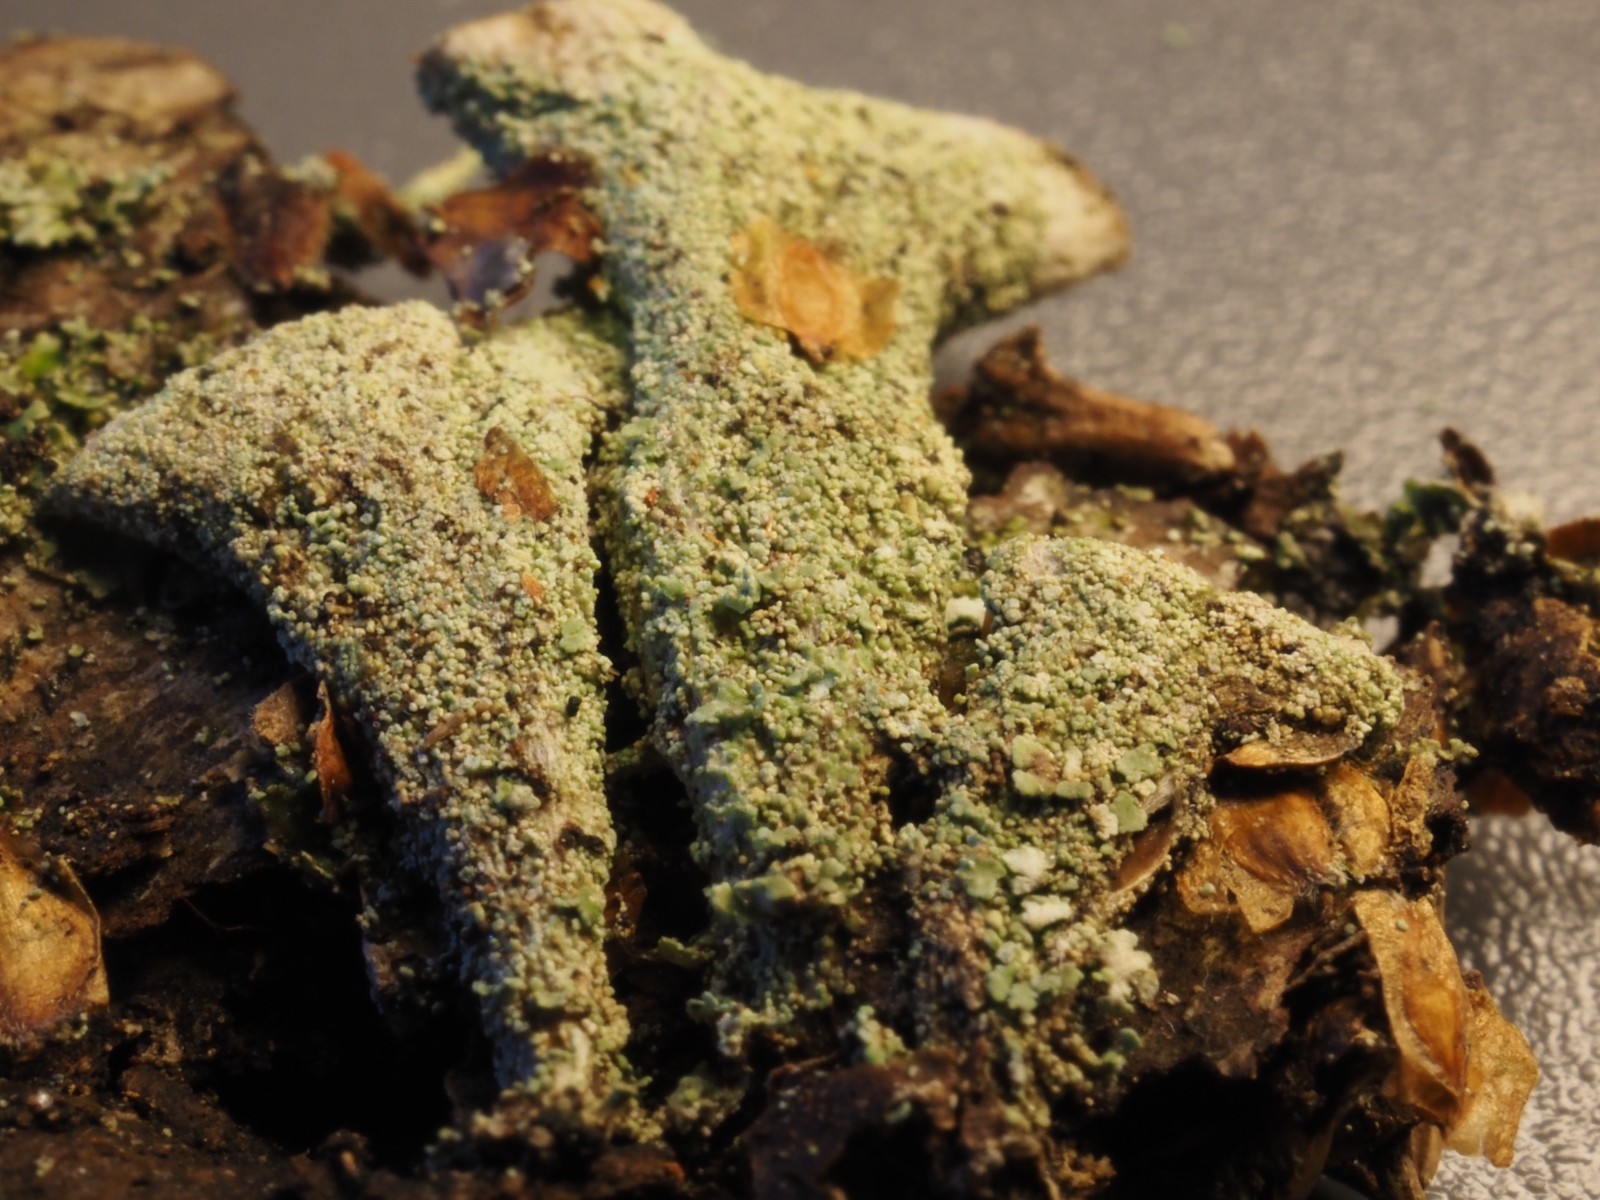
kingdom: Fungi
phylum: Ascomycota
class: Lecanoromycetes
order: Lecanorales
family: Cladoniaceae
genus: Cladonia
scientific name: Cladonia
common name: brungrøn bægerlav
